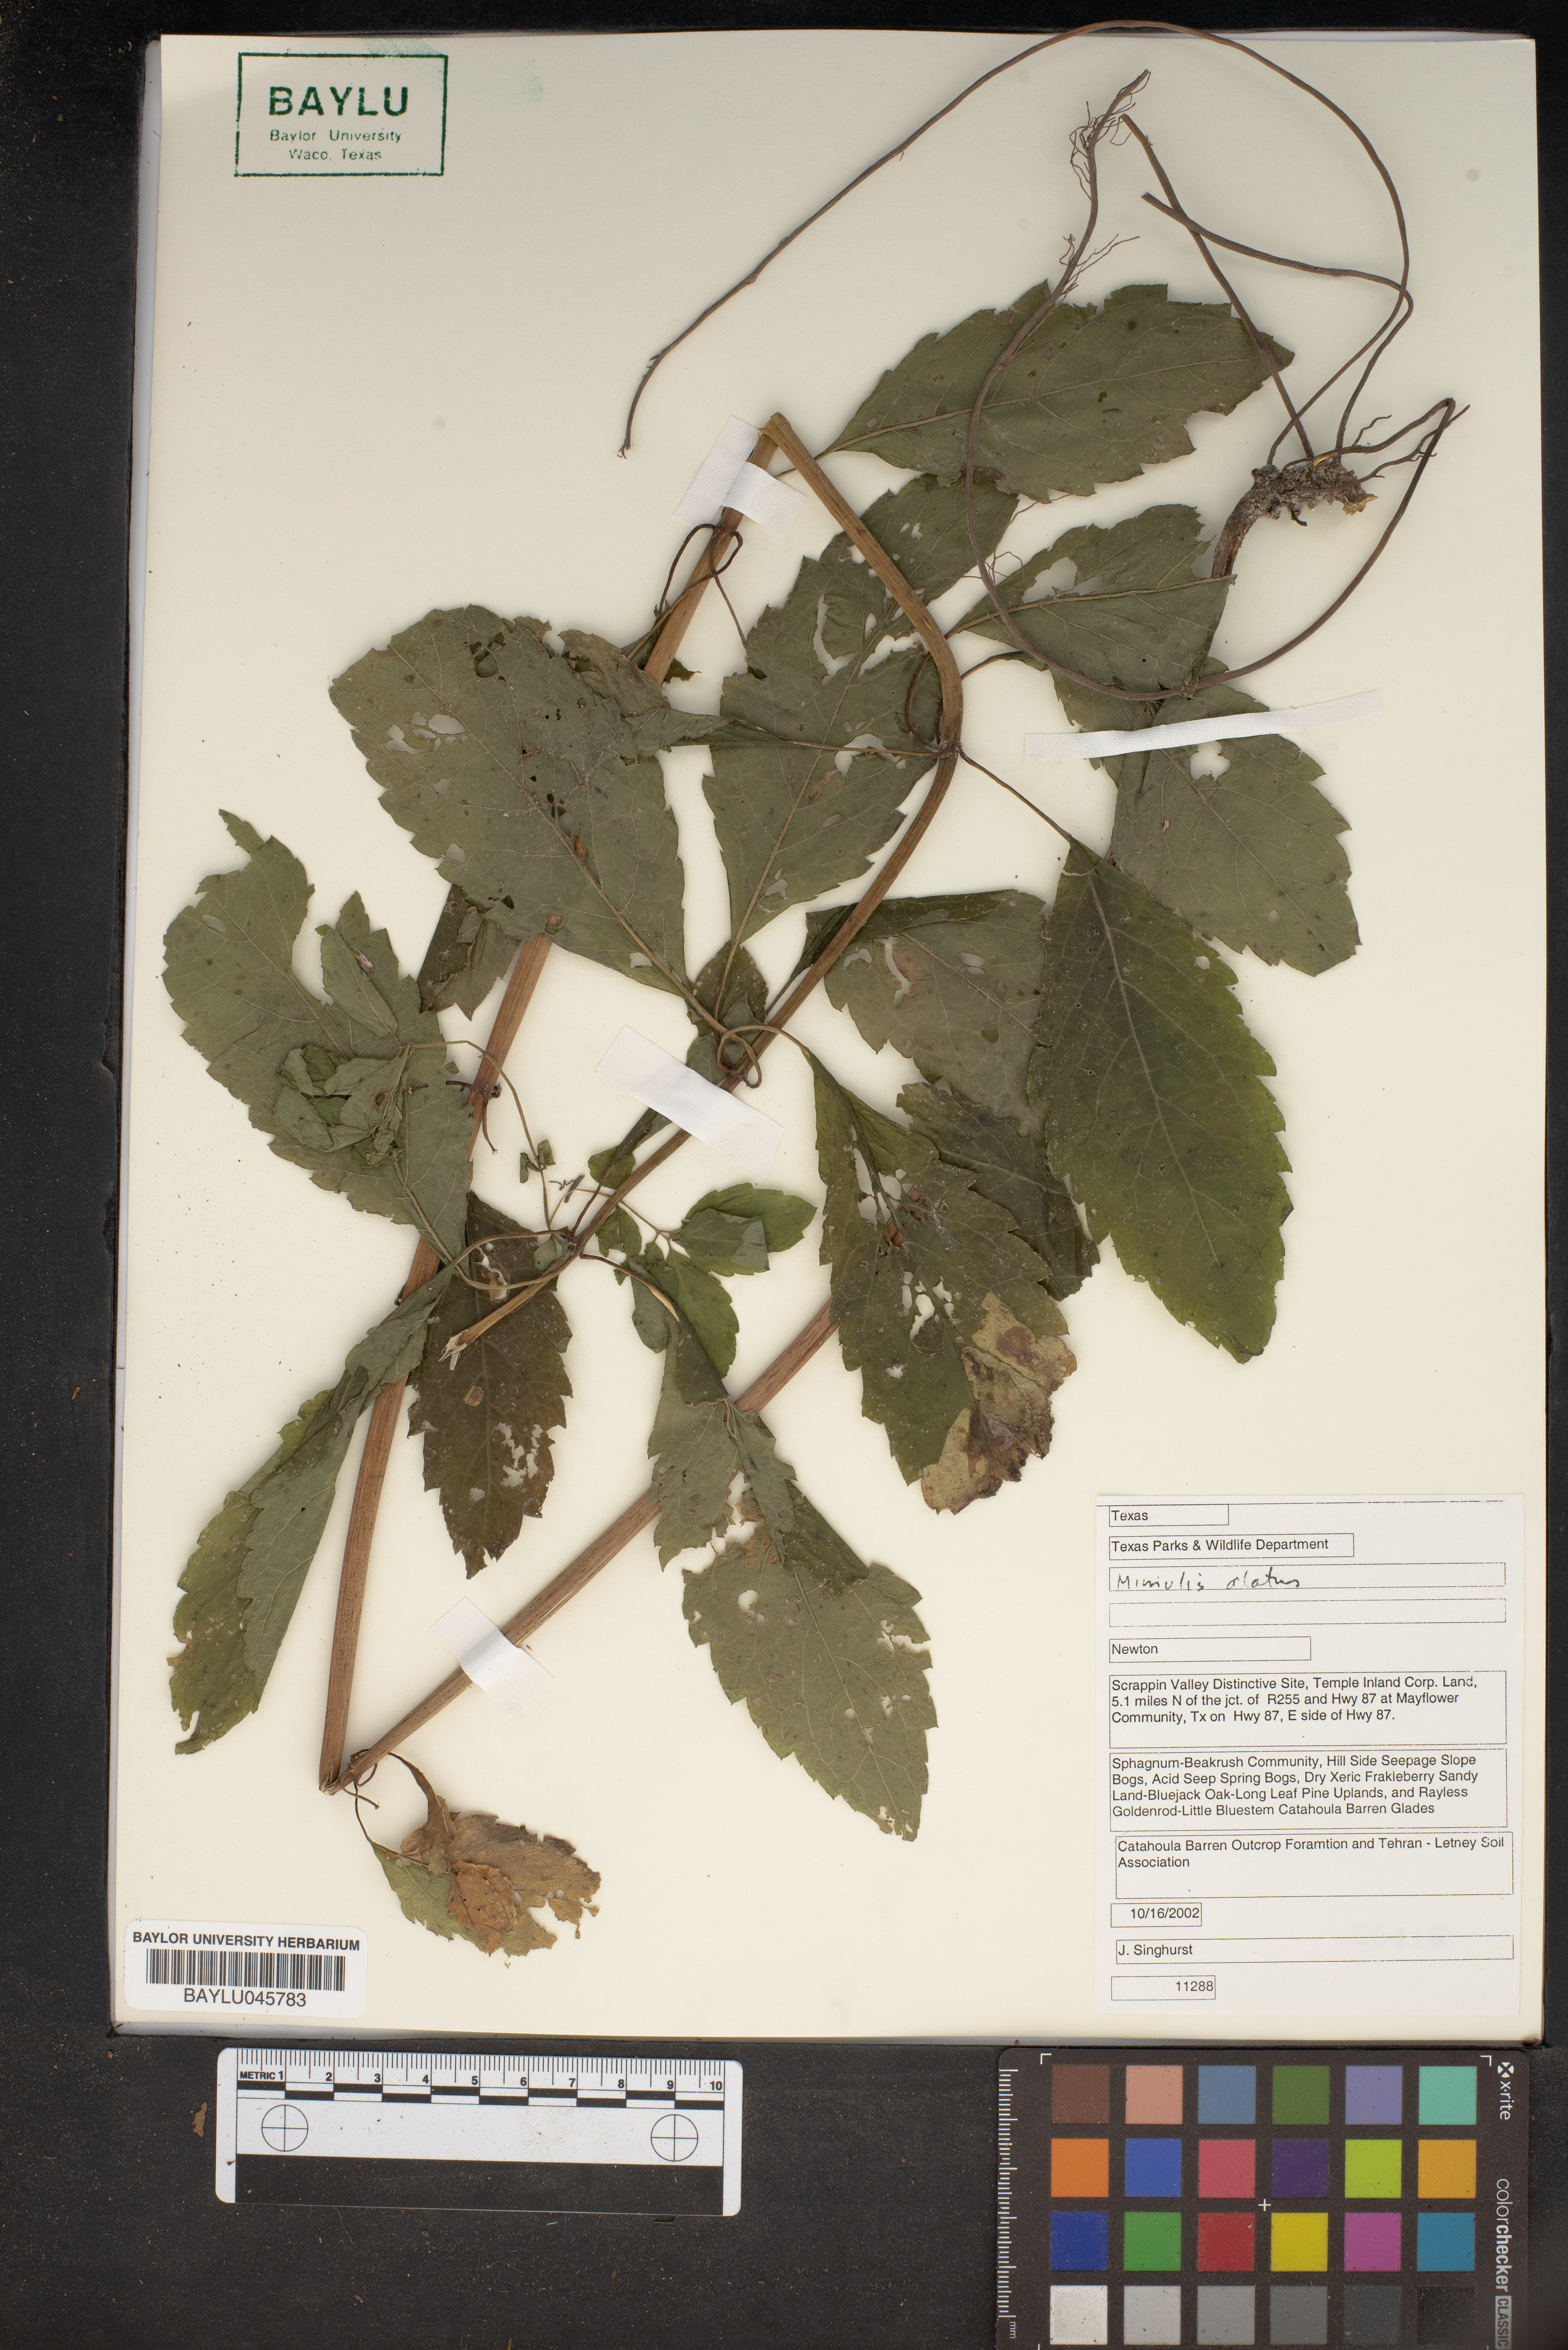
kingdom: Plantae
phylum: Tracheophyta
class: Magnoliopsida
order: Lamiales
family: Phrymaceae
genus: Mimulus
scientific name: Mimulus alatus
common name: Sharp-wing monkey-flower
